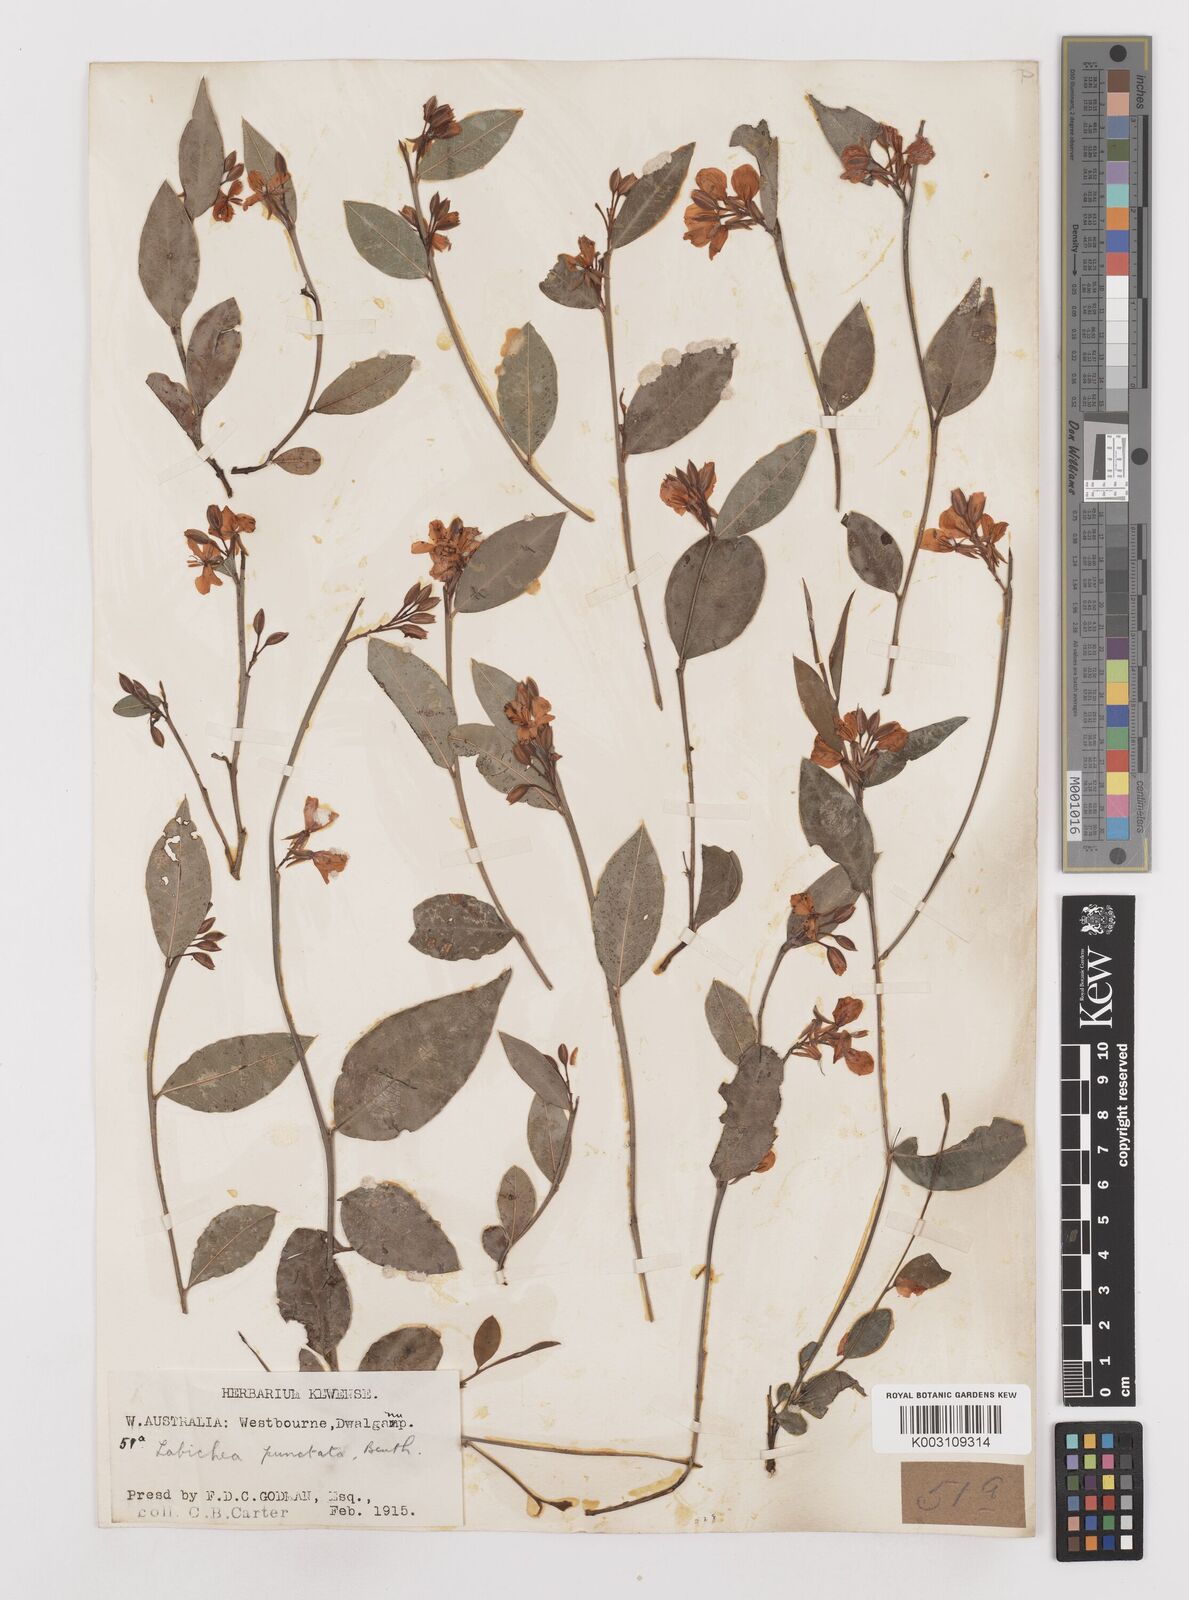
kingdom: Plantae
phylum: Tracheophyta
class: Magnoliopsida
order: Fabales
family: Fabaceae
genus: Labichea
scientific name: Labichea punctata
